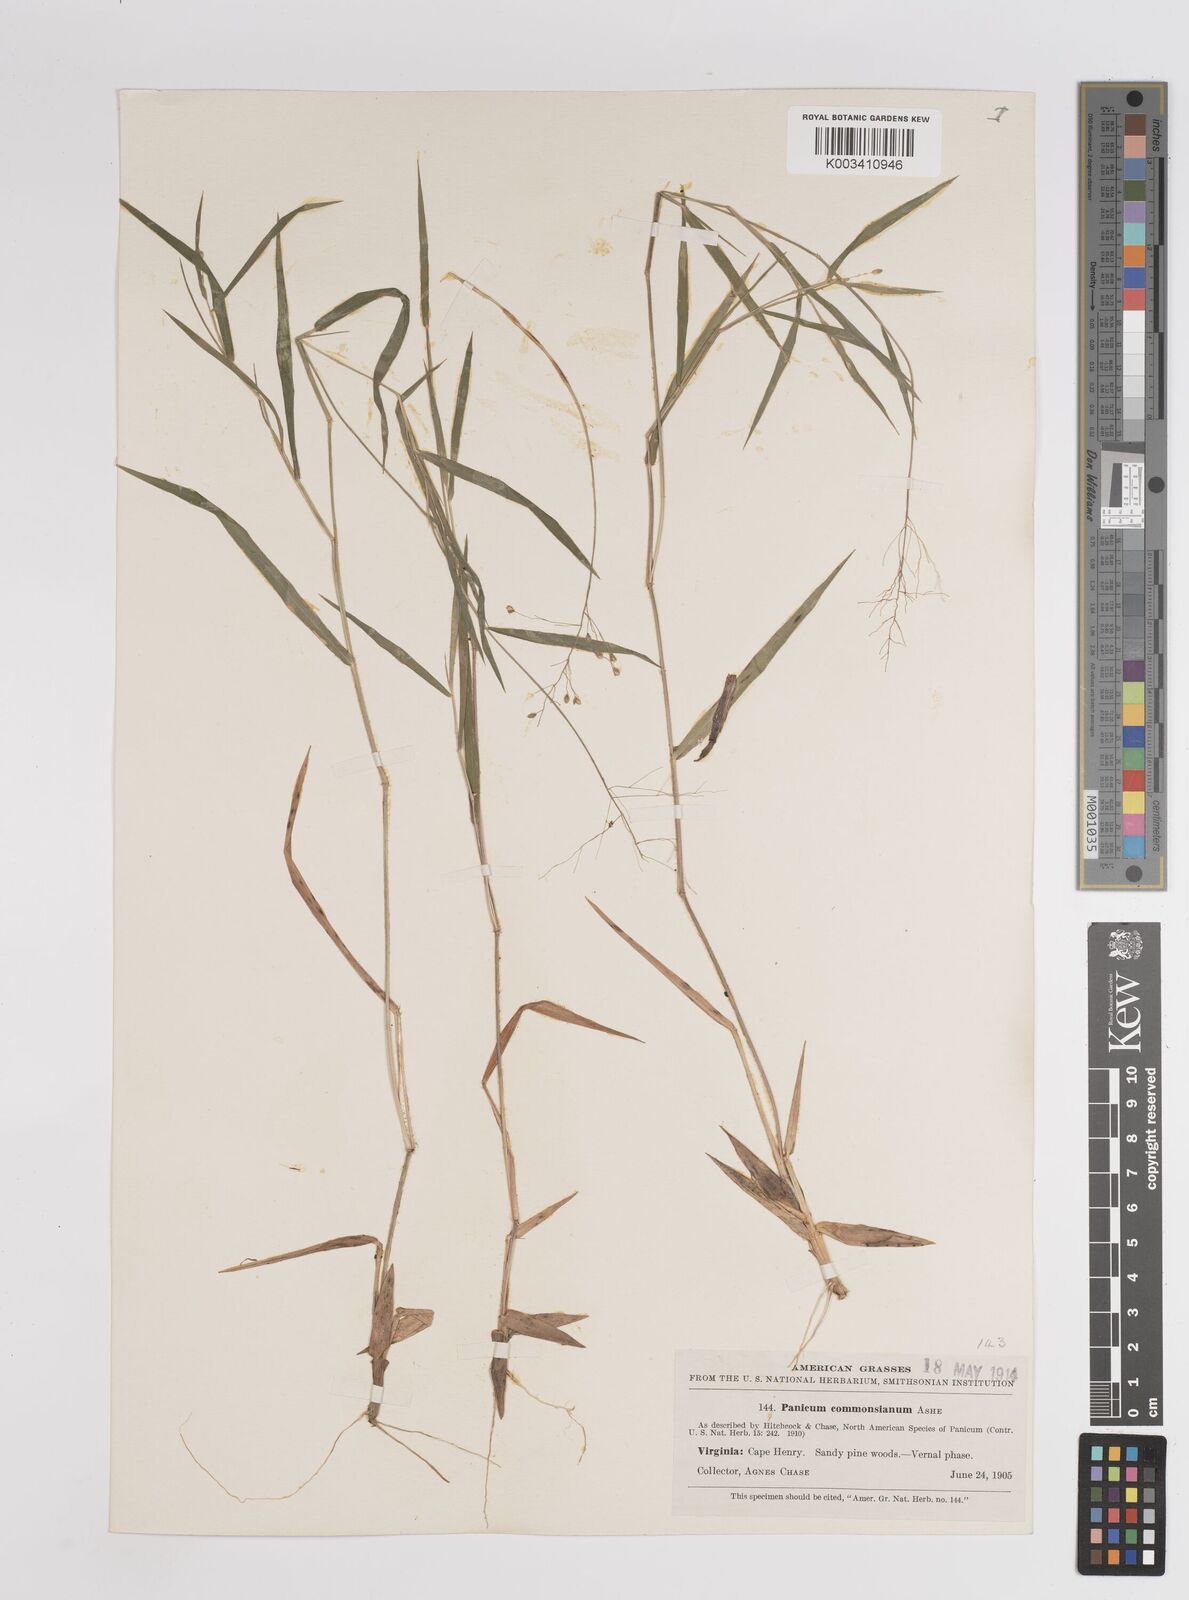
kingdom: Plantae
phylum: Tracheophyta
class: Liliopsida
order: Poales
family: Poaceae
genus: Dichanthelium
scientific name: Dichanthelium commonsianum
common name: Commons' panicgrass
